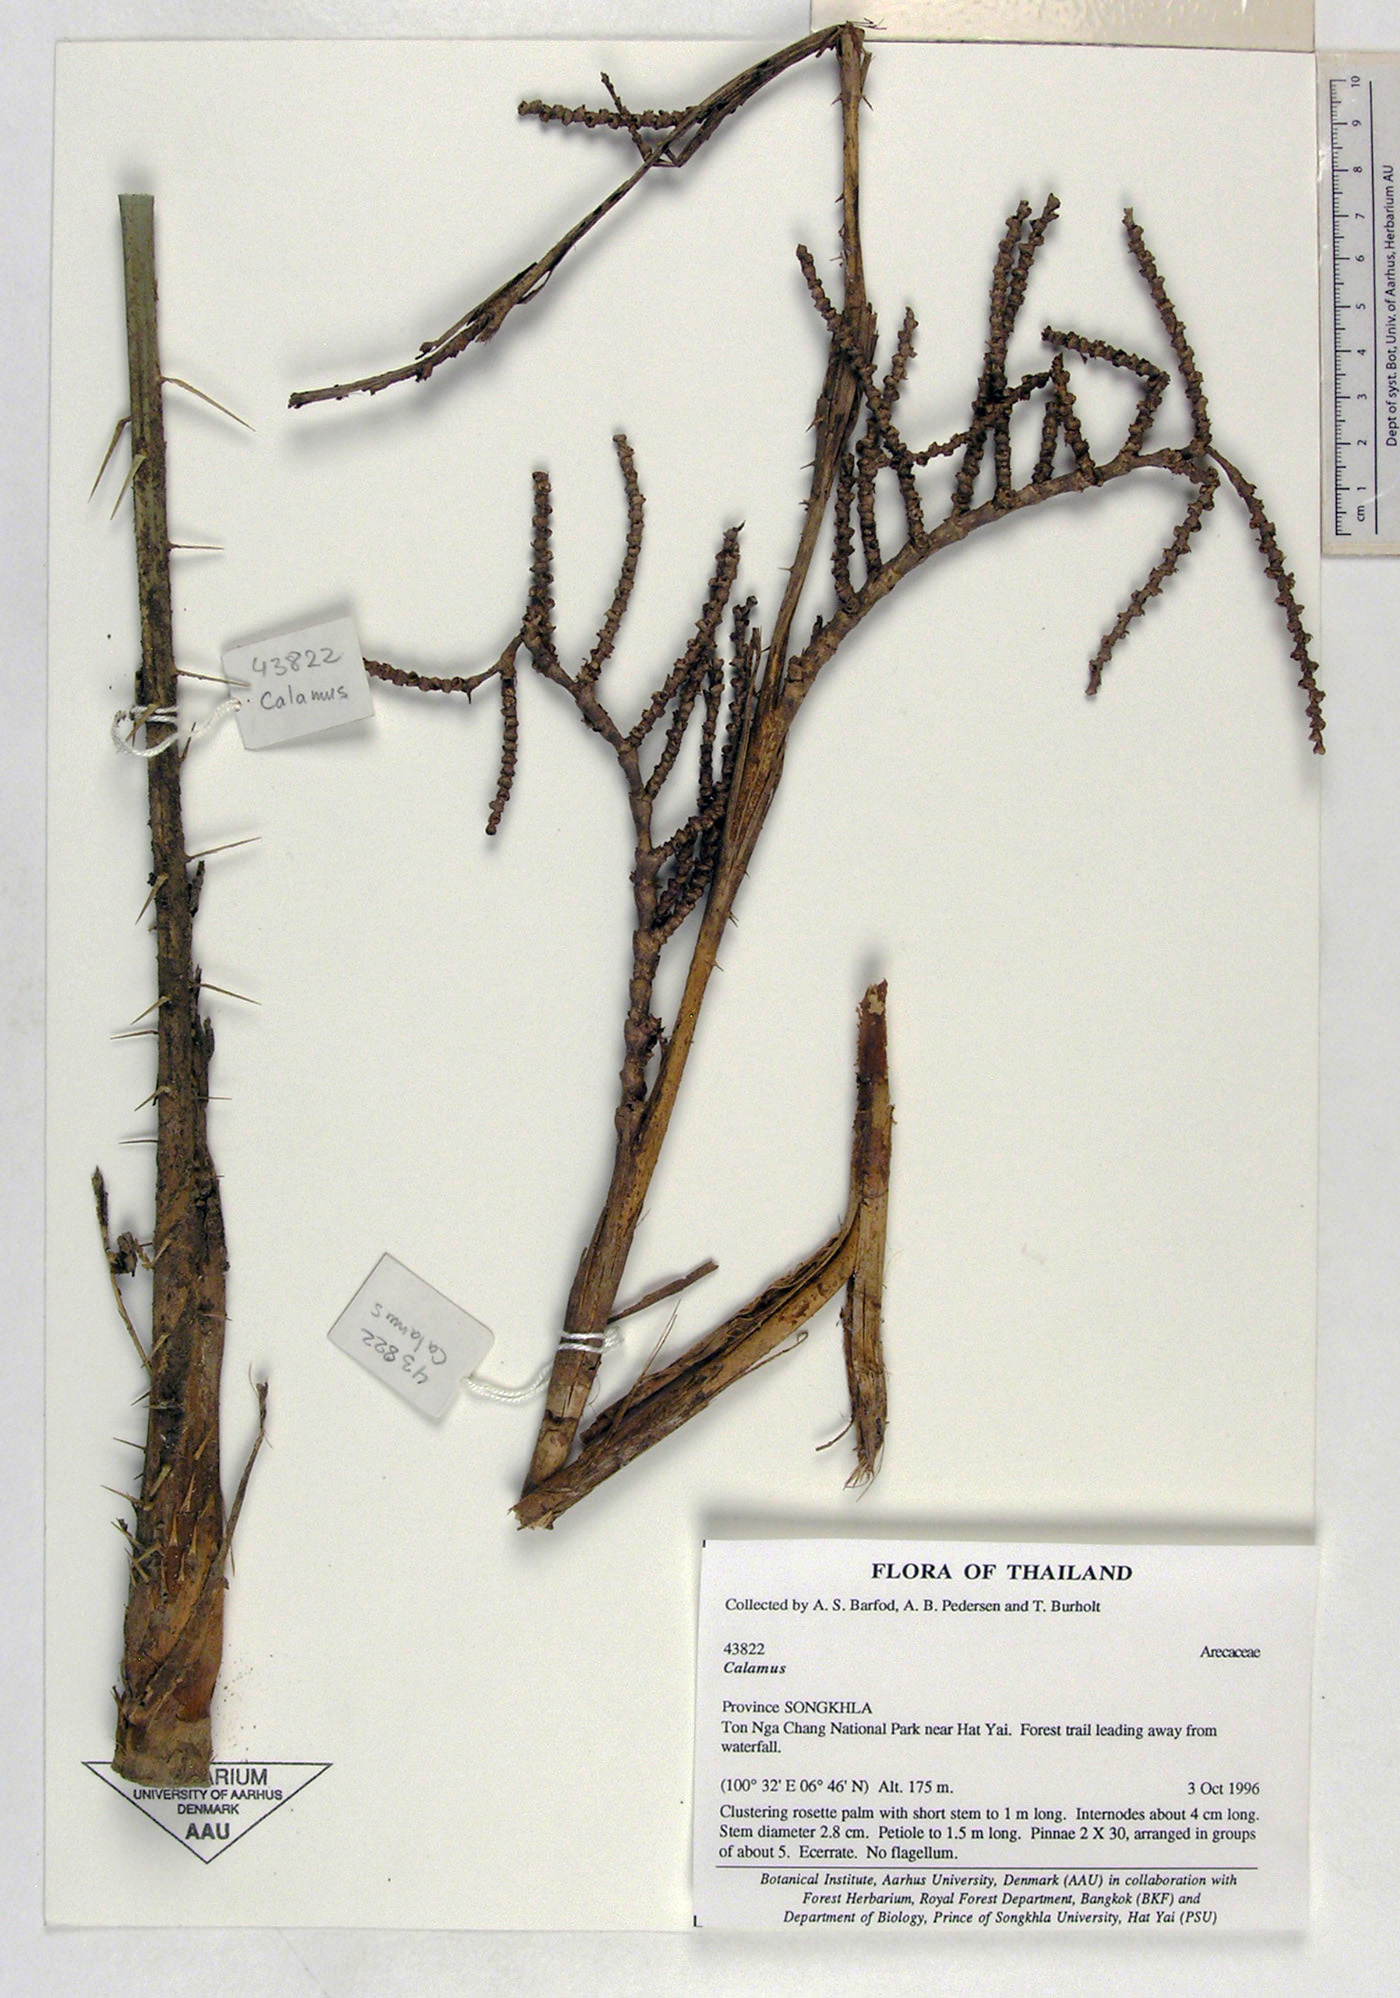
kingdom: Plantae
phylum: Tracheophyta
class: Liliopsida
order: Arecales
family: Arecaceae
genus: Calamus
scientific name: Calamus concinnus
